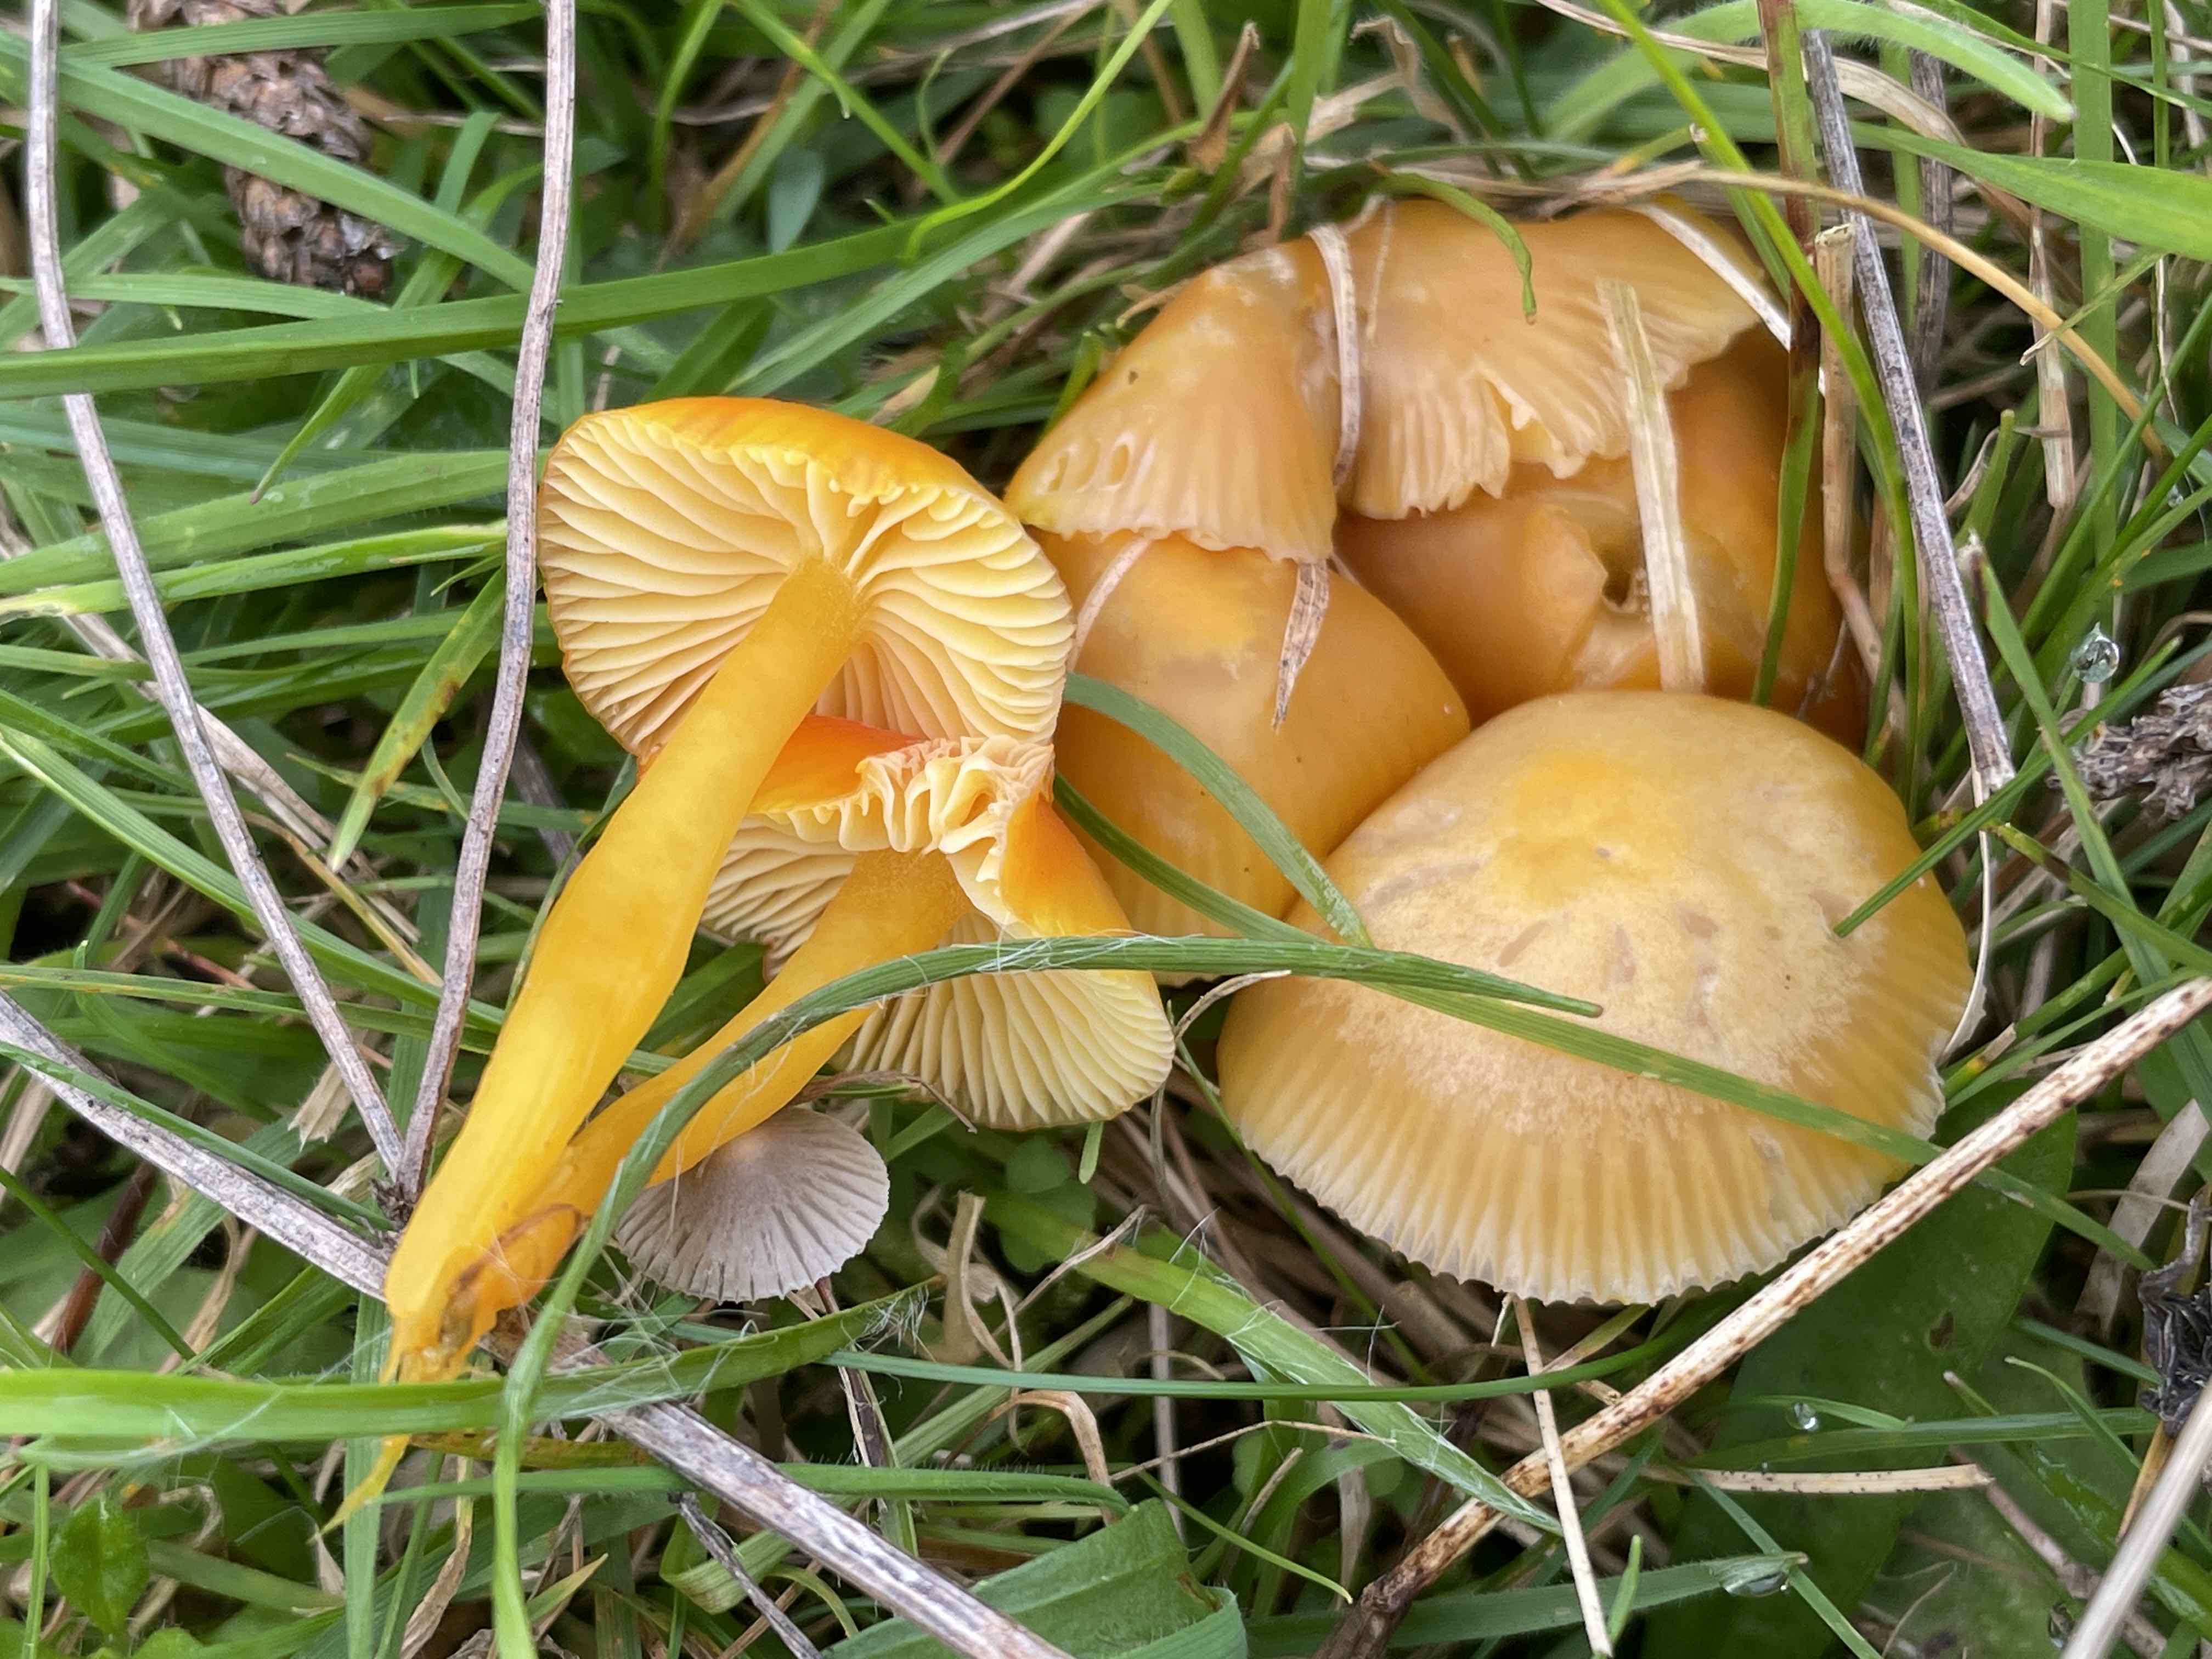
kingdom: Fungi
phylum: Basidiomycota
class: Agaricomycetes
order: Agaricales
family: Hygrophoraceae
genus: Hygrocybe
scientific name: Hygrocybe ceracea
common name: voksgul vokshat
